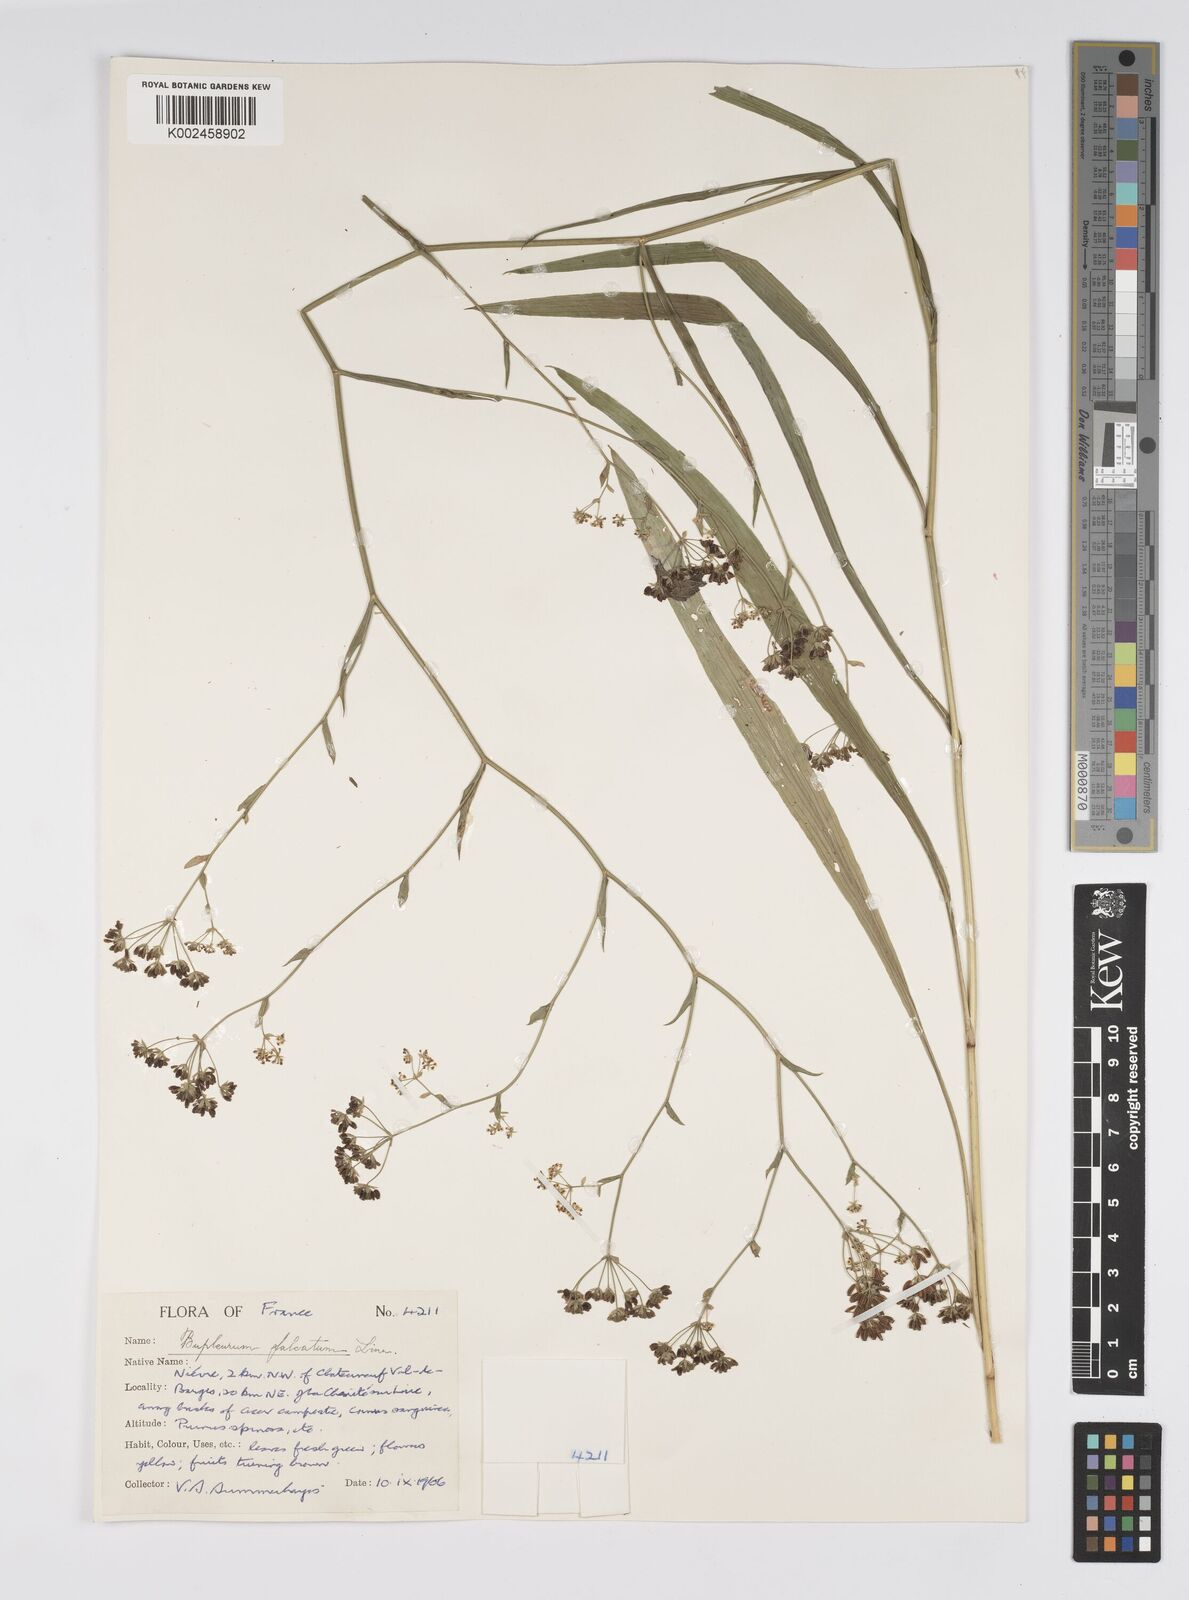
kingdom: Plantae
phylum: Tracheophyta
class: Magnoliopsida
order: Apiales
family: Apiaceae
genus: Bupleurum
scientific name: Bupleurum falcatum
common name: Sickle-leaved hare's-ear
